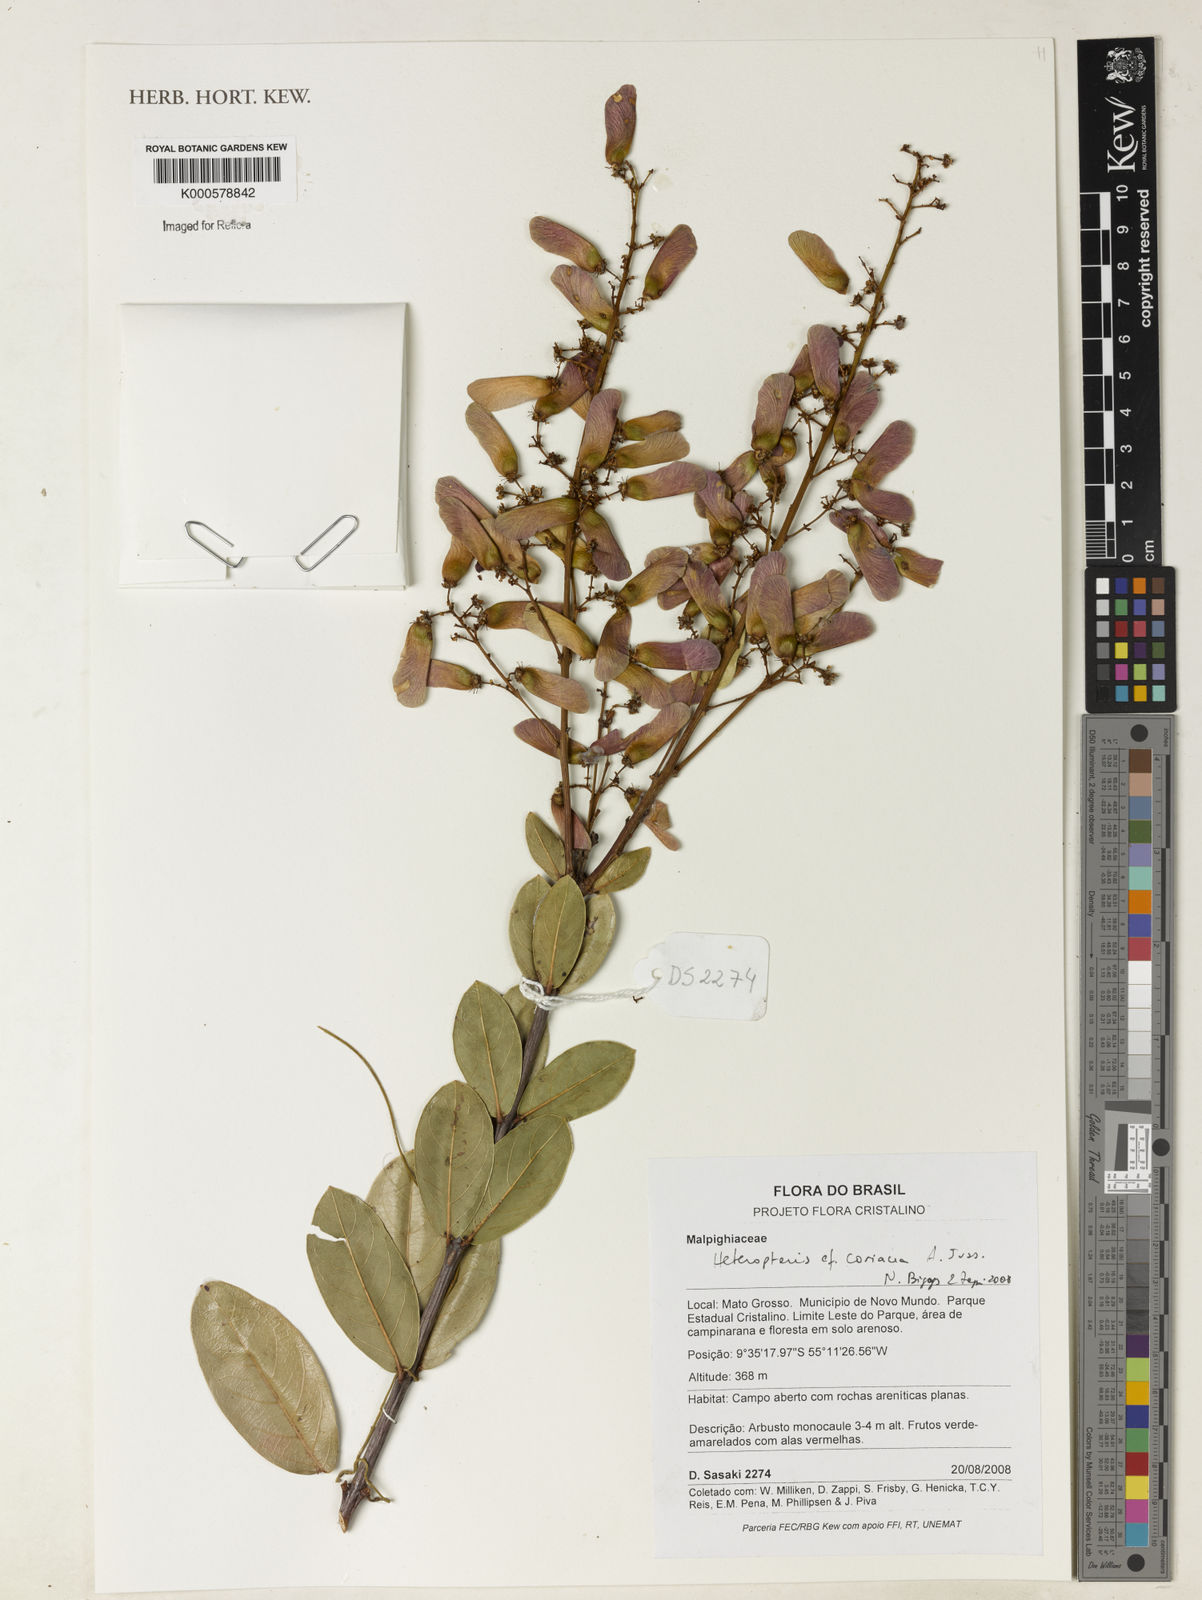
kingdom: Plantae
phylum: Tracheophyta
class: Magnoliopsida
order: Malpighiales
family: Malpighiaceae
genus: Heteropterys
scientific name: Heteropterys coriacea
